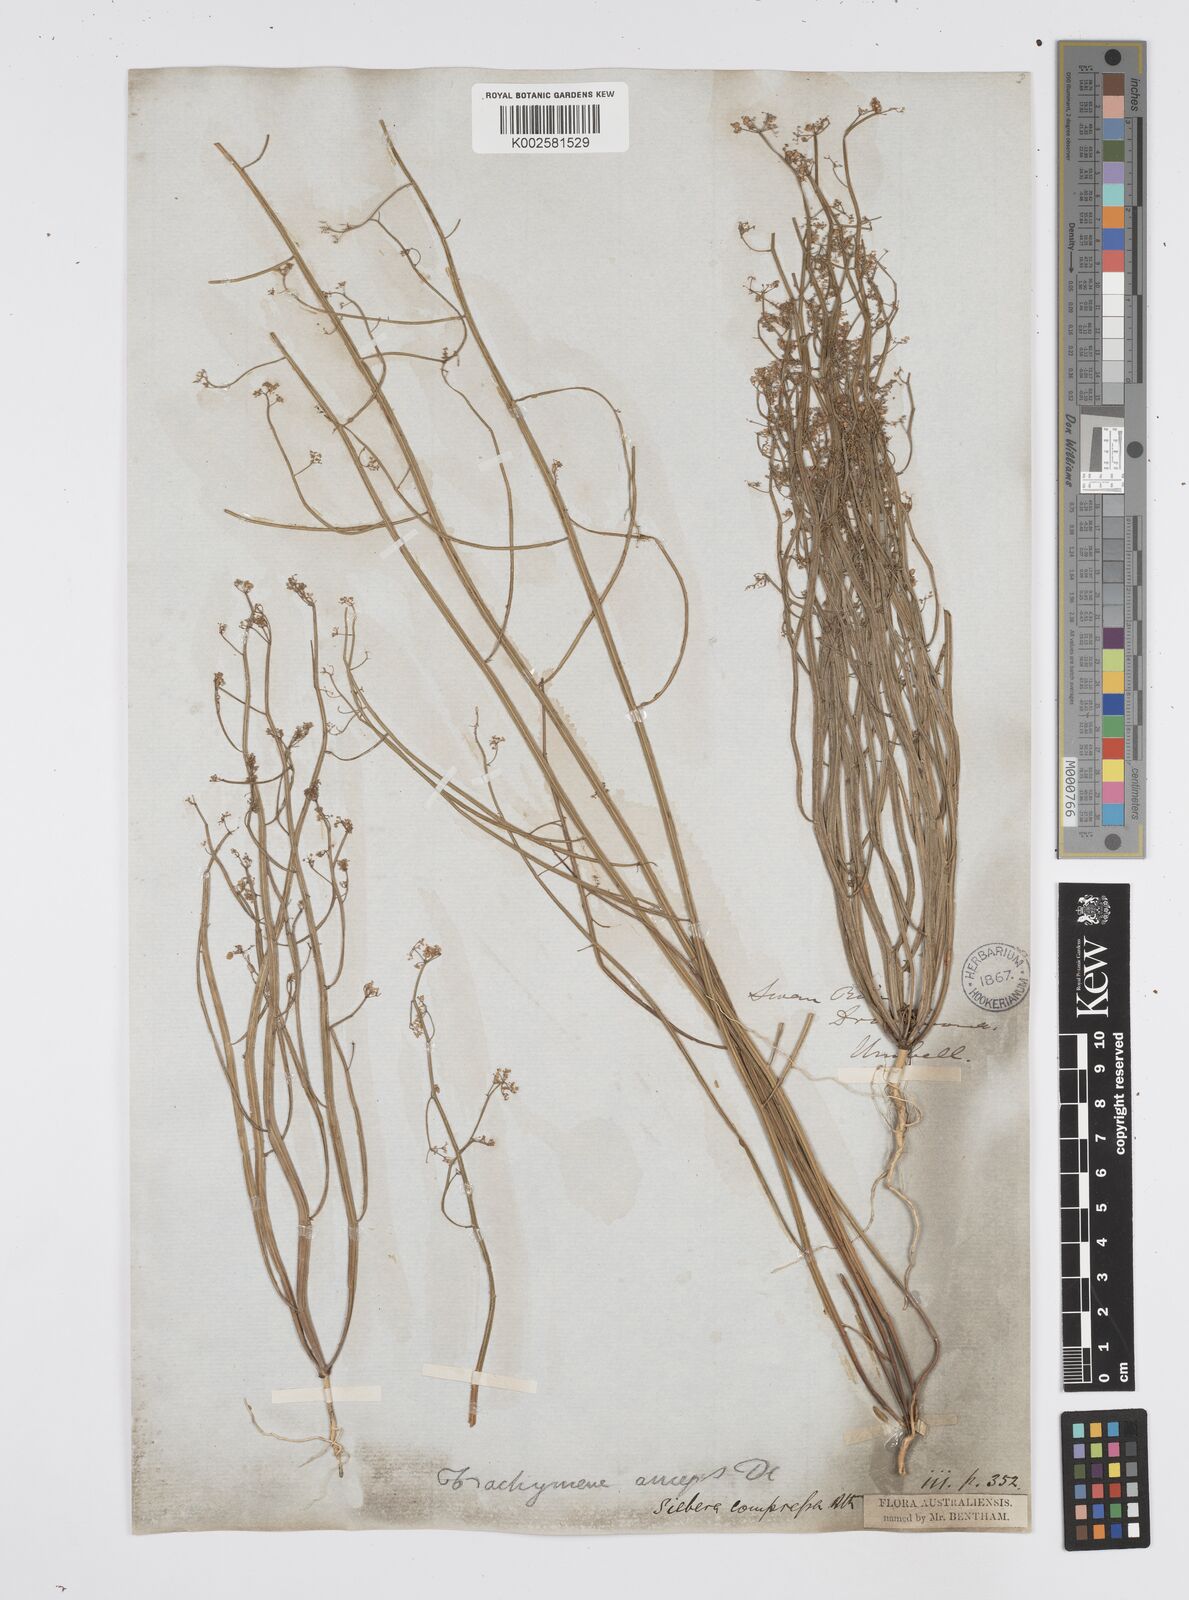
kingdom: Plantae
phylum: Tracheophyta
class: Magnoliopsida
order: Apiales
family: Apiaceae
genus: Centella
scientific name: Centella
